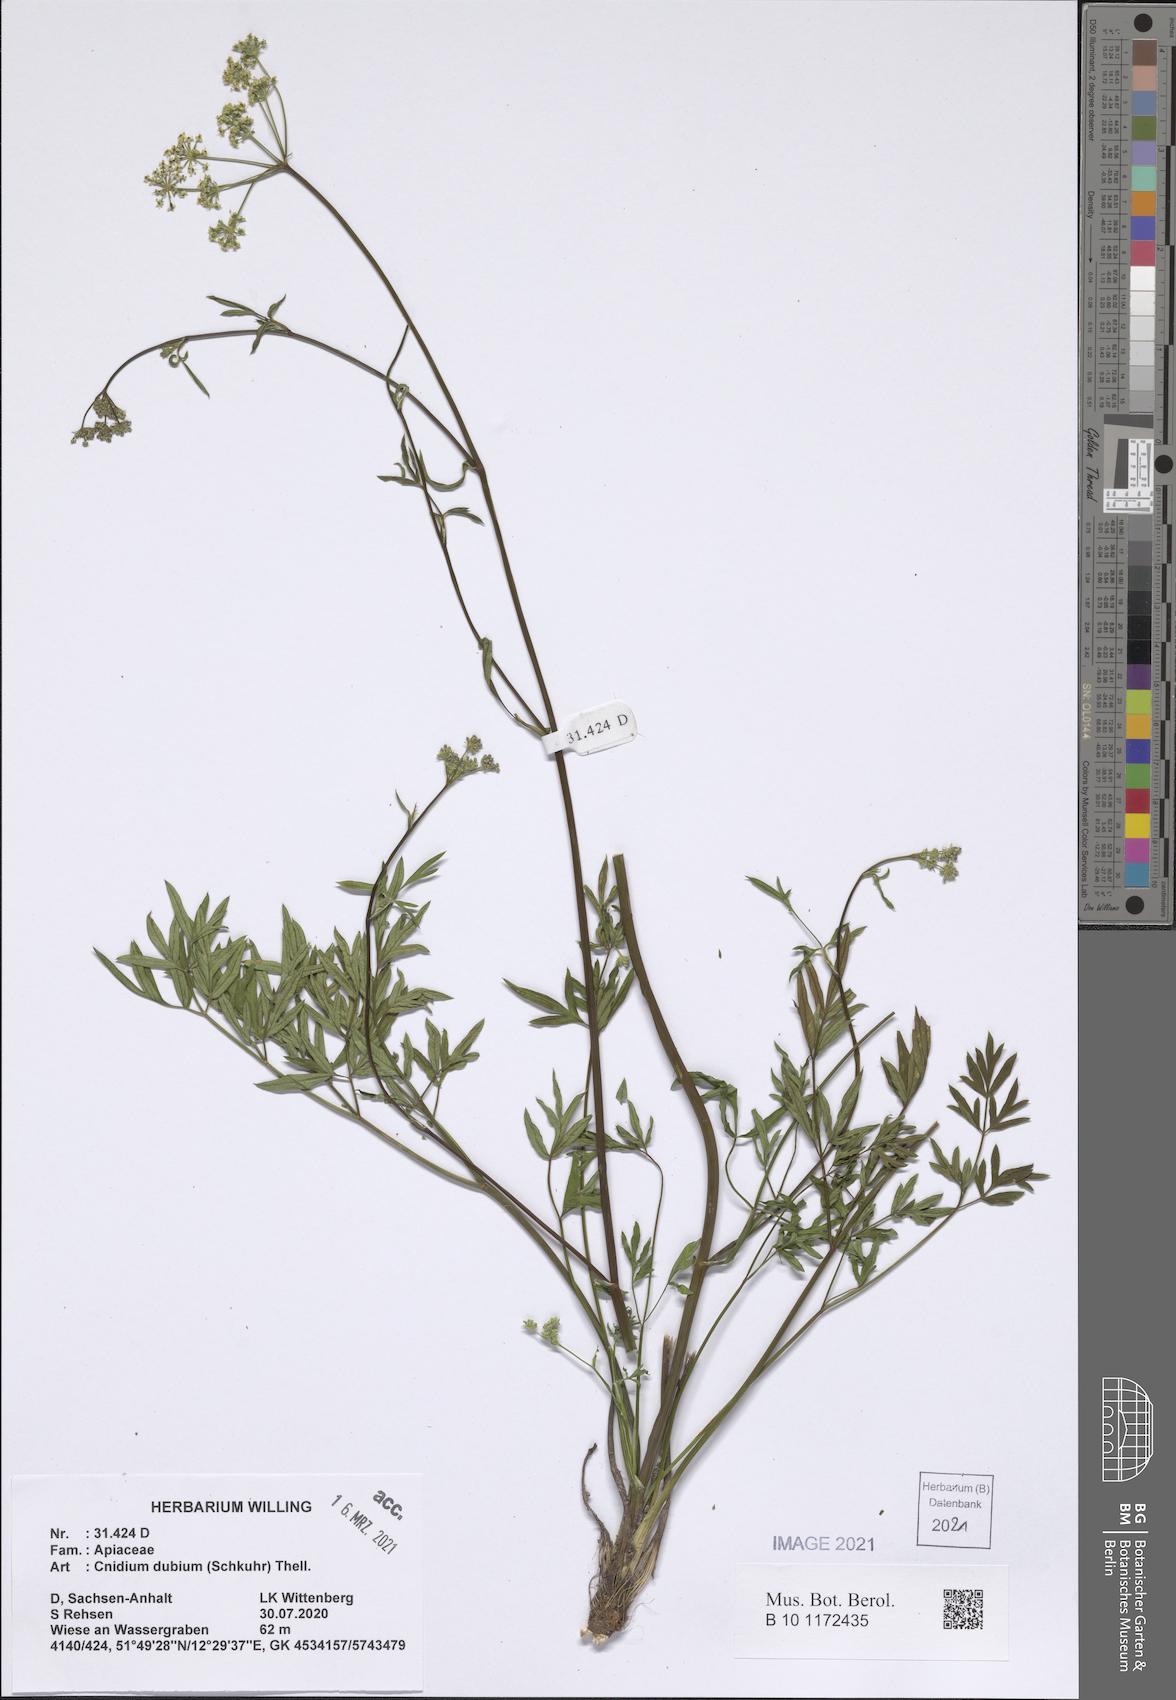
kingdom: Plantae
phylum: Tracheophyta
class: Magnoliopsida
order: Apiales
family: Apiaceae
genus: Kadenia
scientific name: Kadenia dubia
